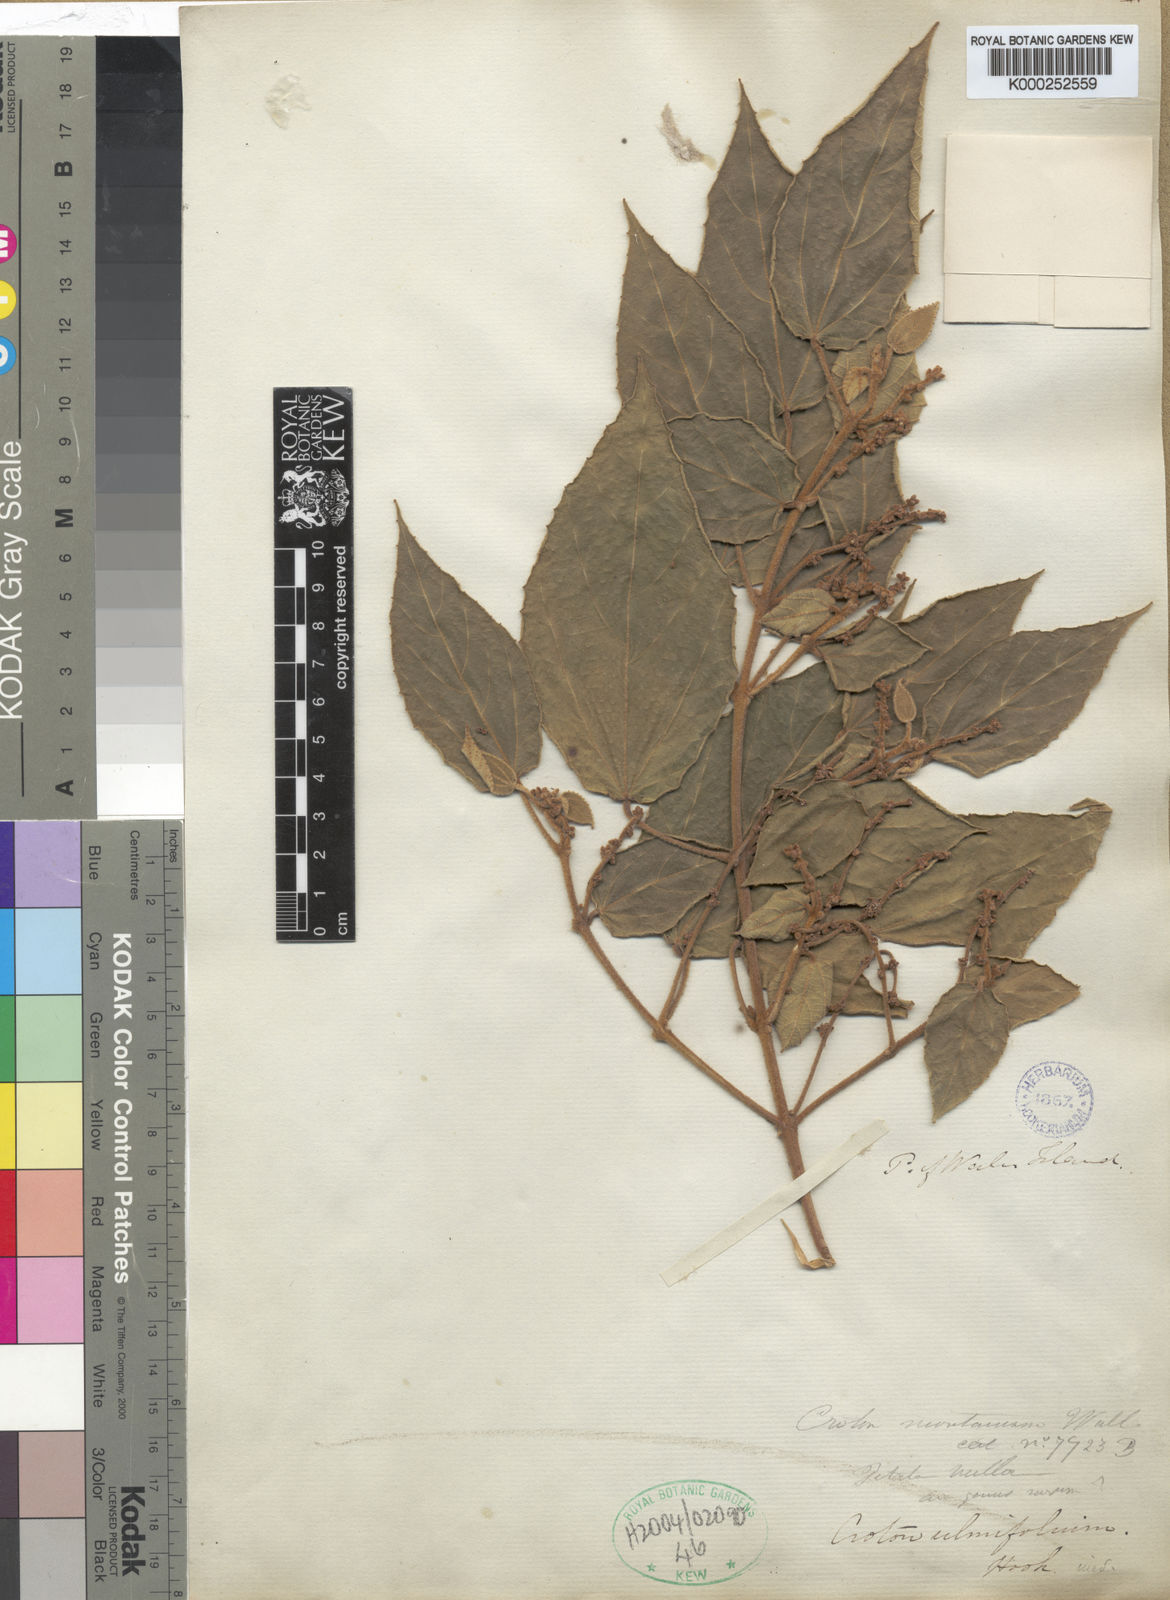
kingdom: Plantae
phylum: Tracheophyta
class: Magnoliopsida
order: Malpighiales
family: Euphorbiaceae
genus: Mallotus
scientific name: Mallotus
